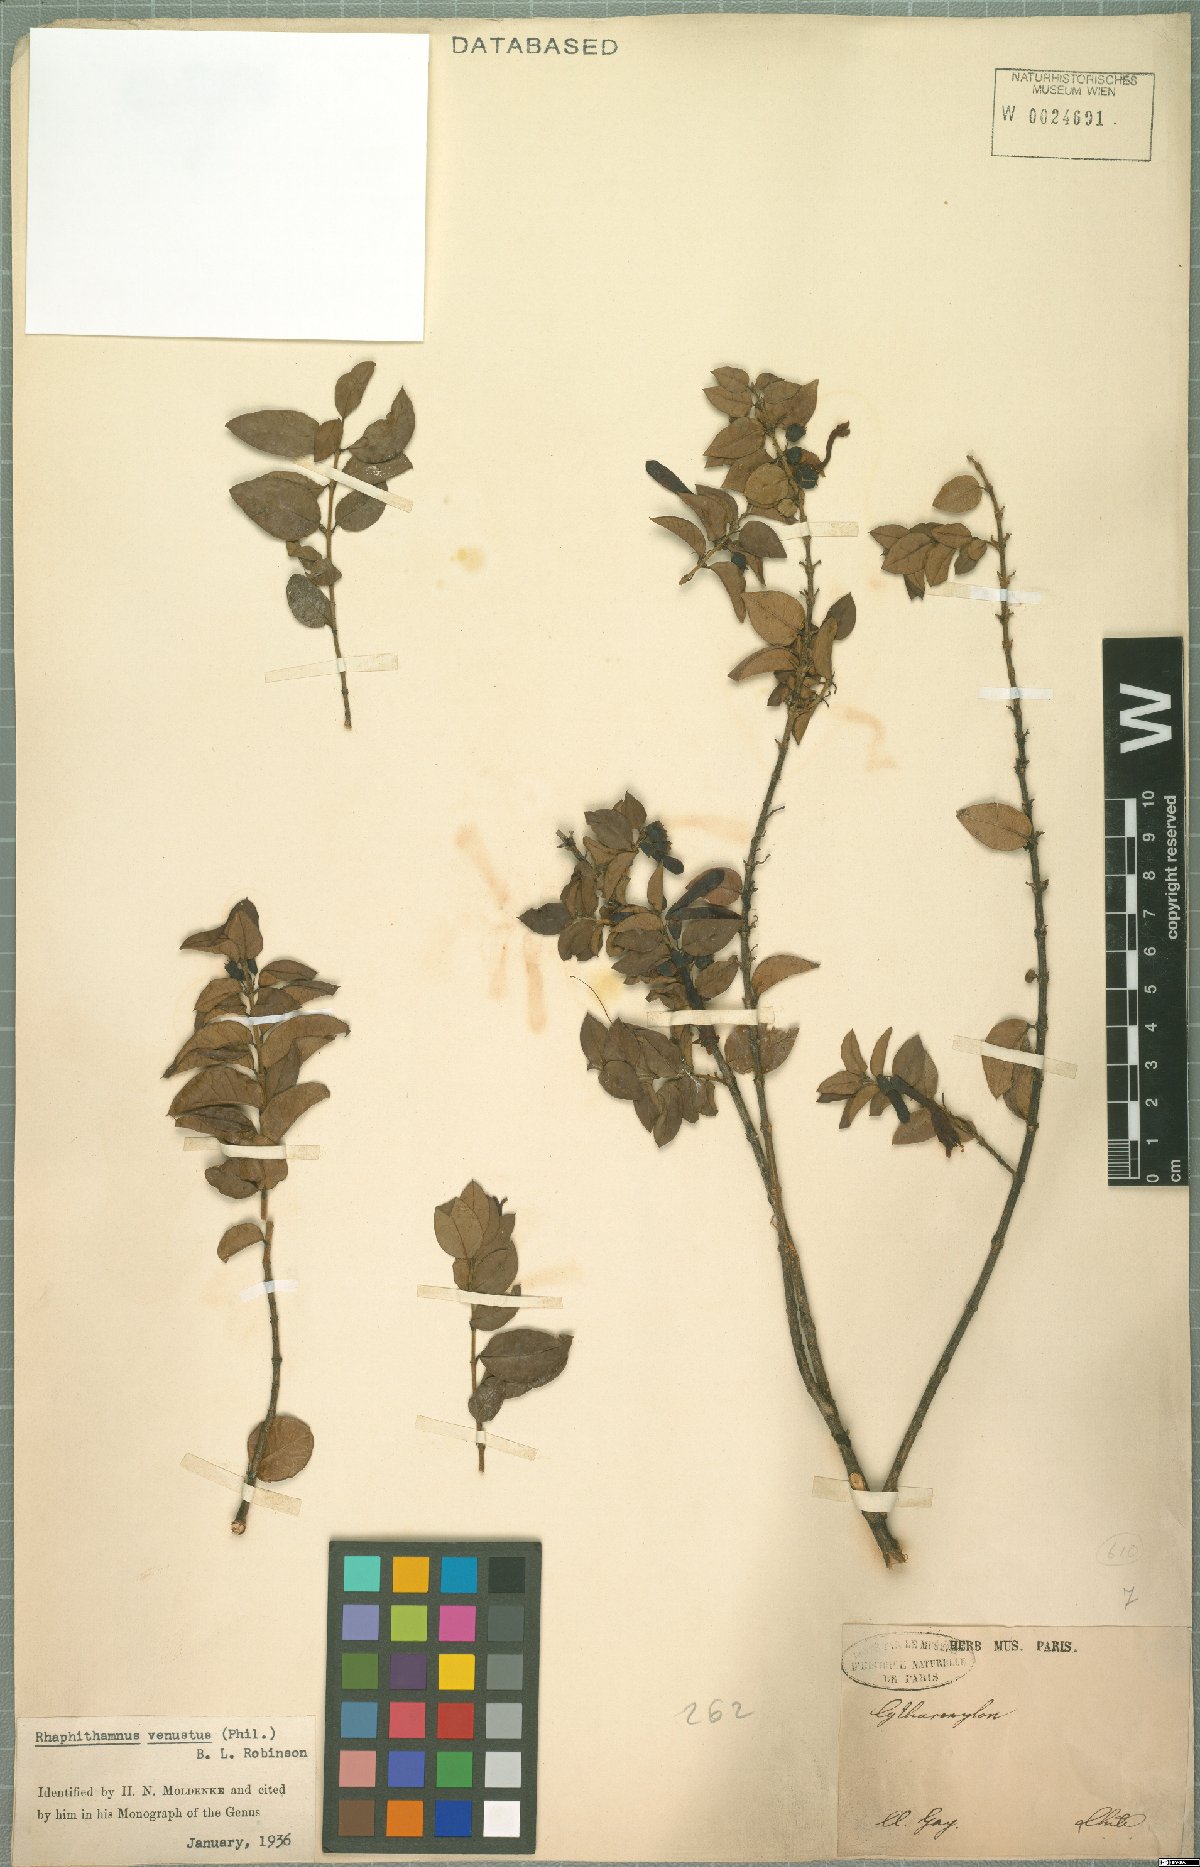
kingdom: Plantae
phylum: Tracheophyta
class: Magnoliopsida
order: Lamiales
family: Verbenaceae
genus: Rhaphithamnus
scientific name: Rhaphithamnus venustus
